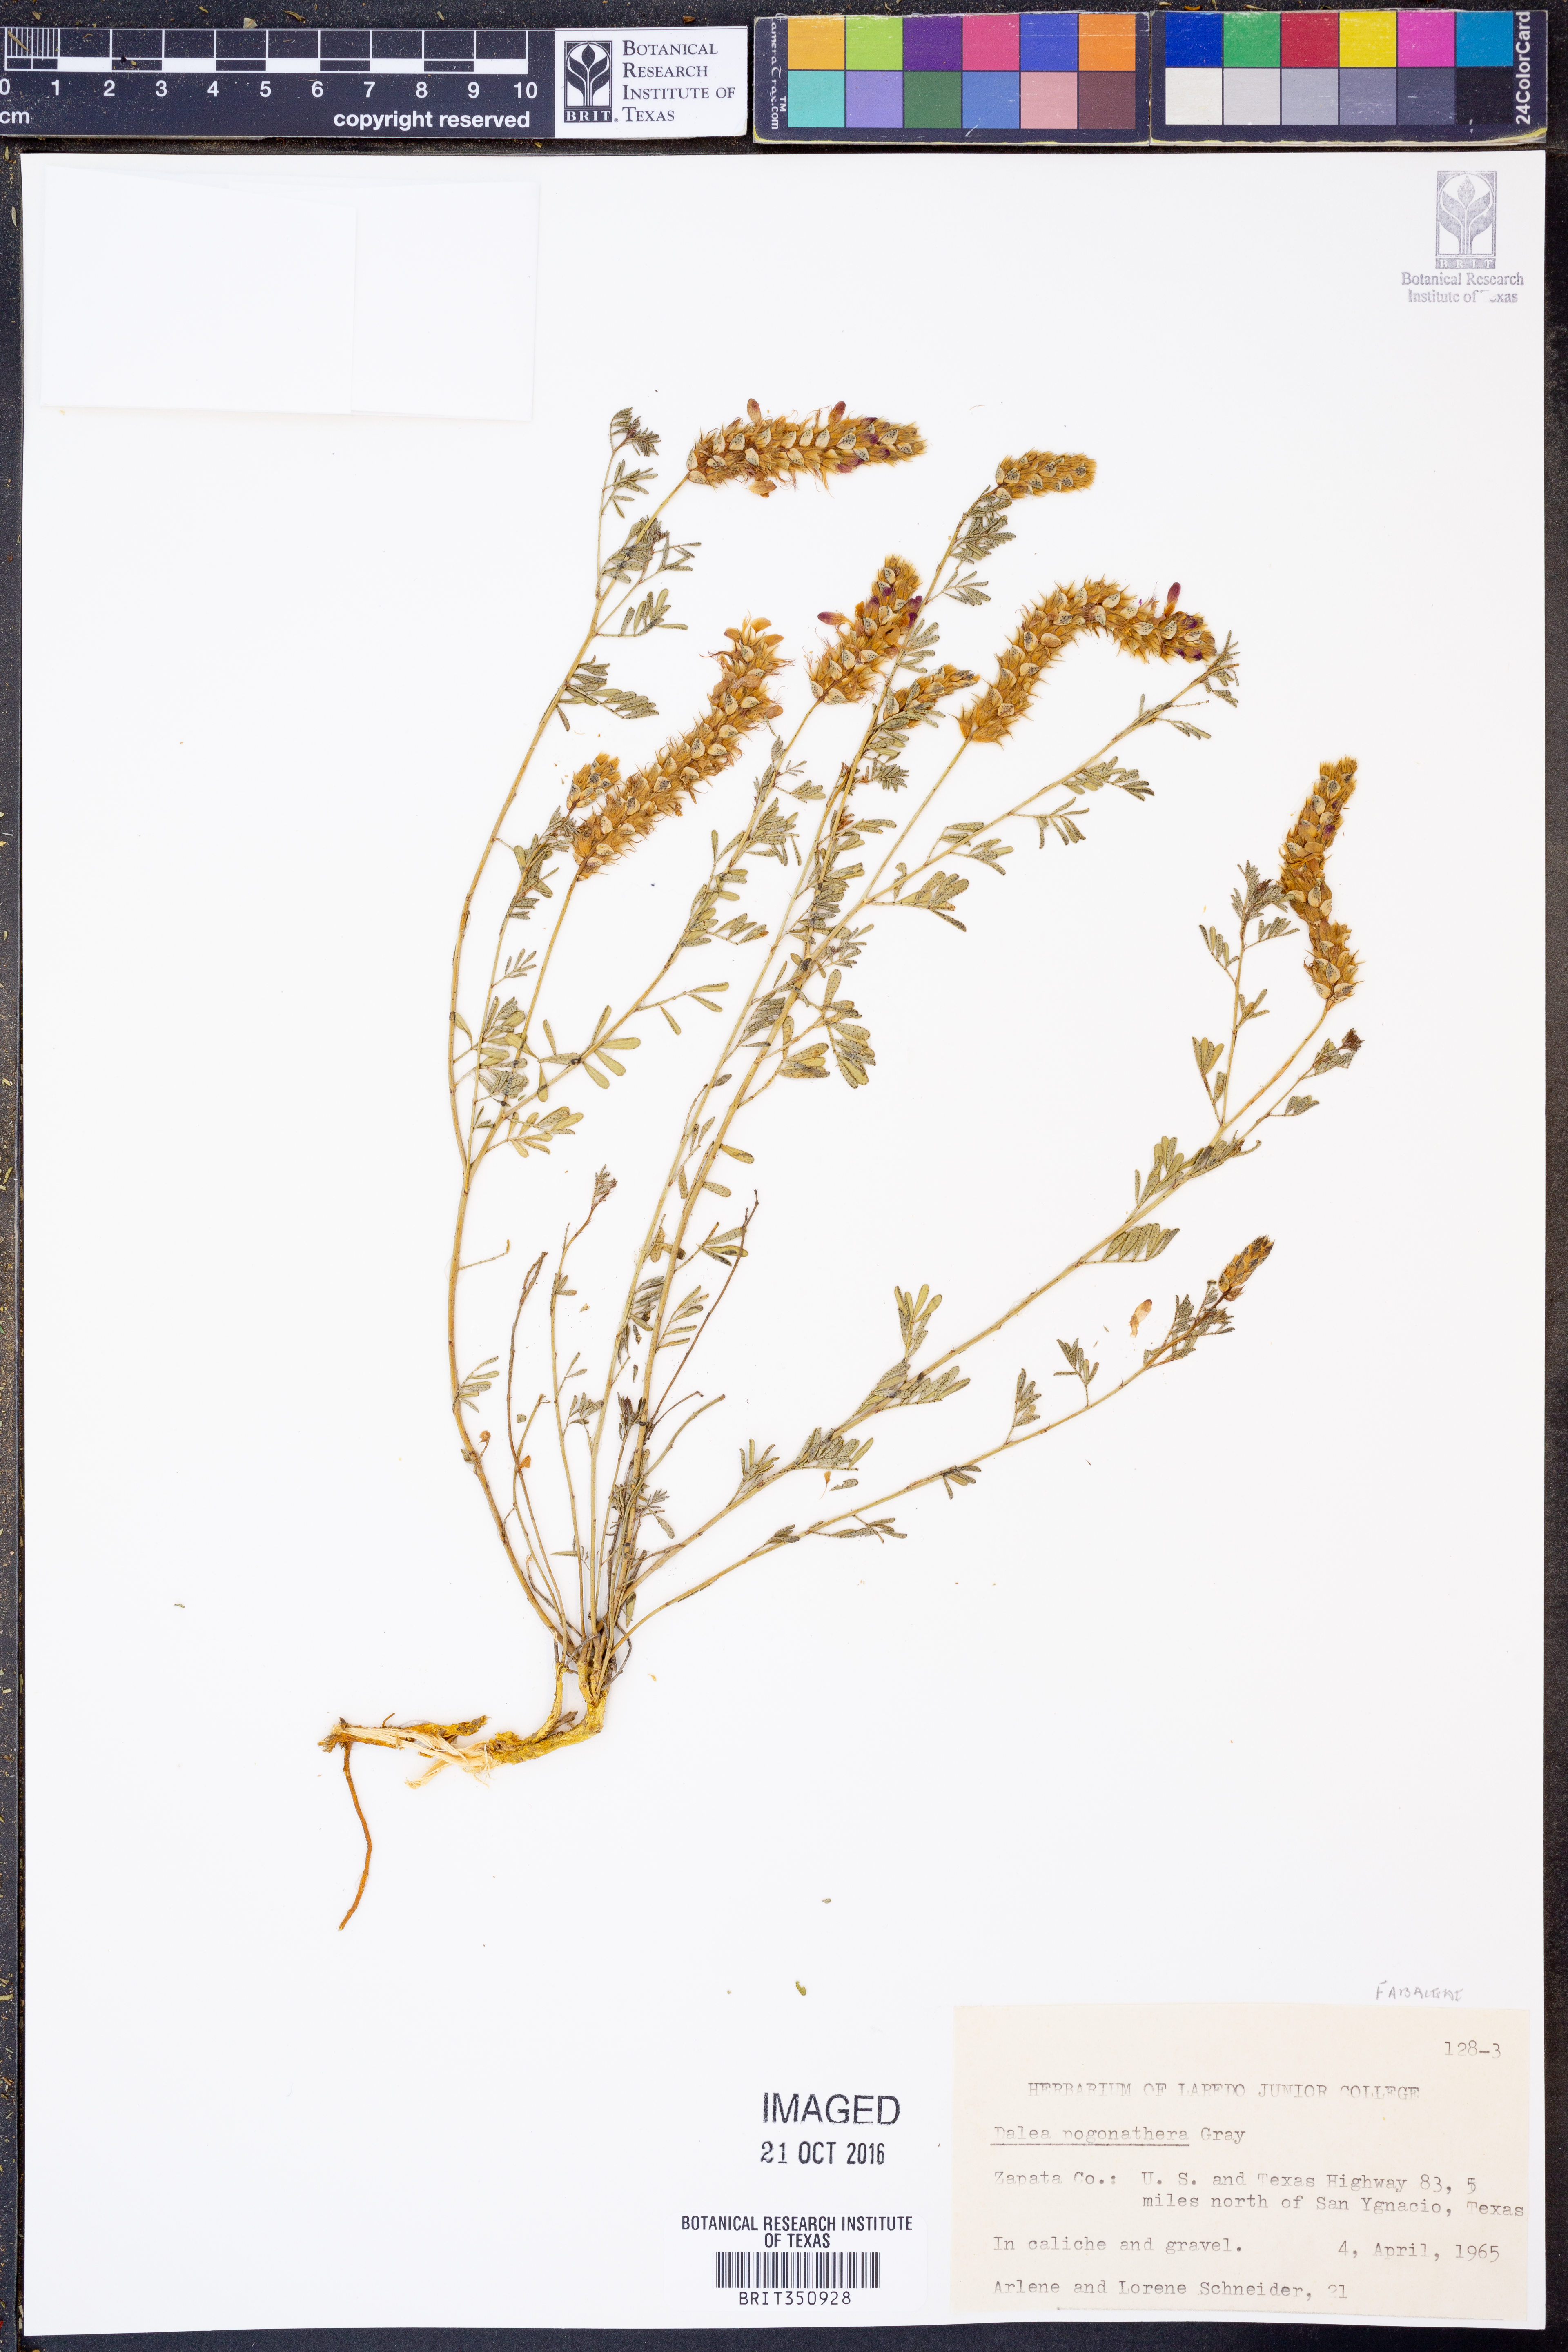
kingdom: Plantae
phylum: Tracheophyta
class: Magnoliopsida
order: Fabales
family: Fabaceae
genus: Dalea
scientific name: Dalea pogonathera
